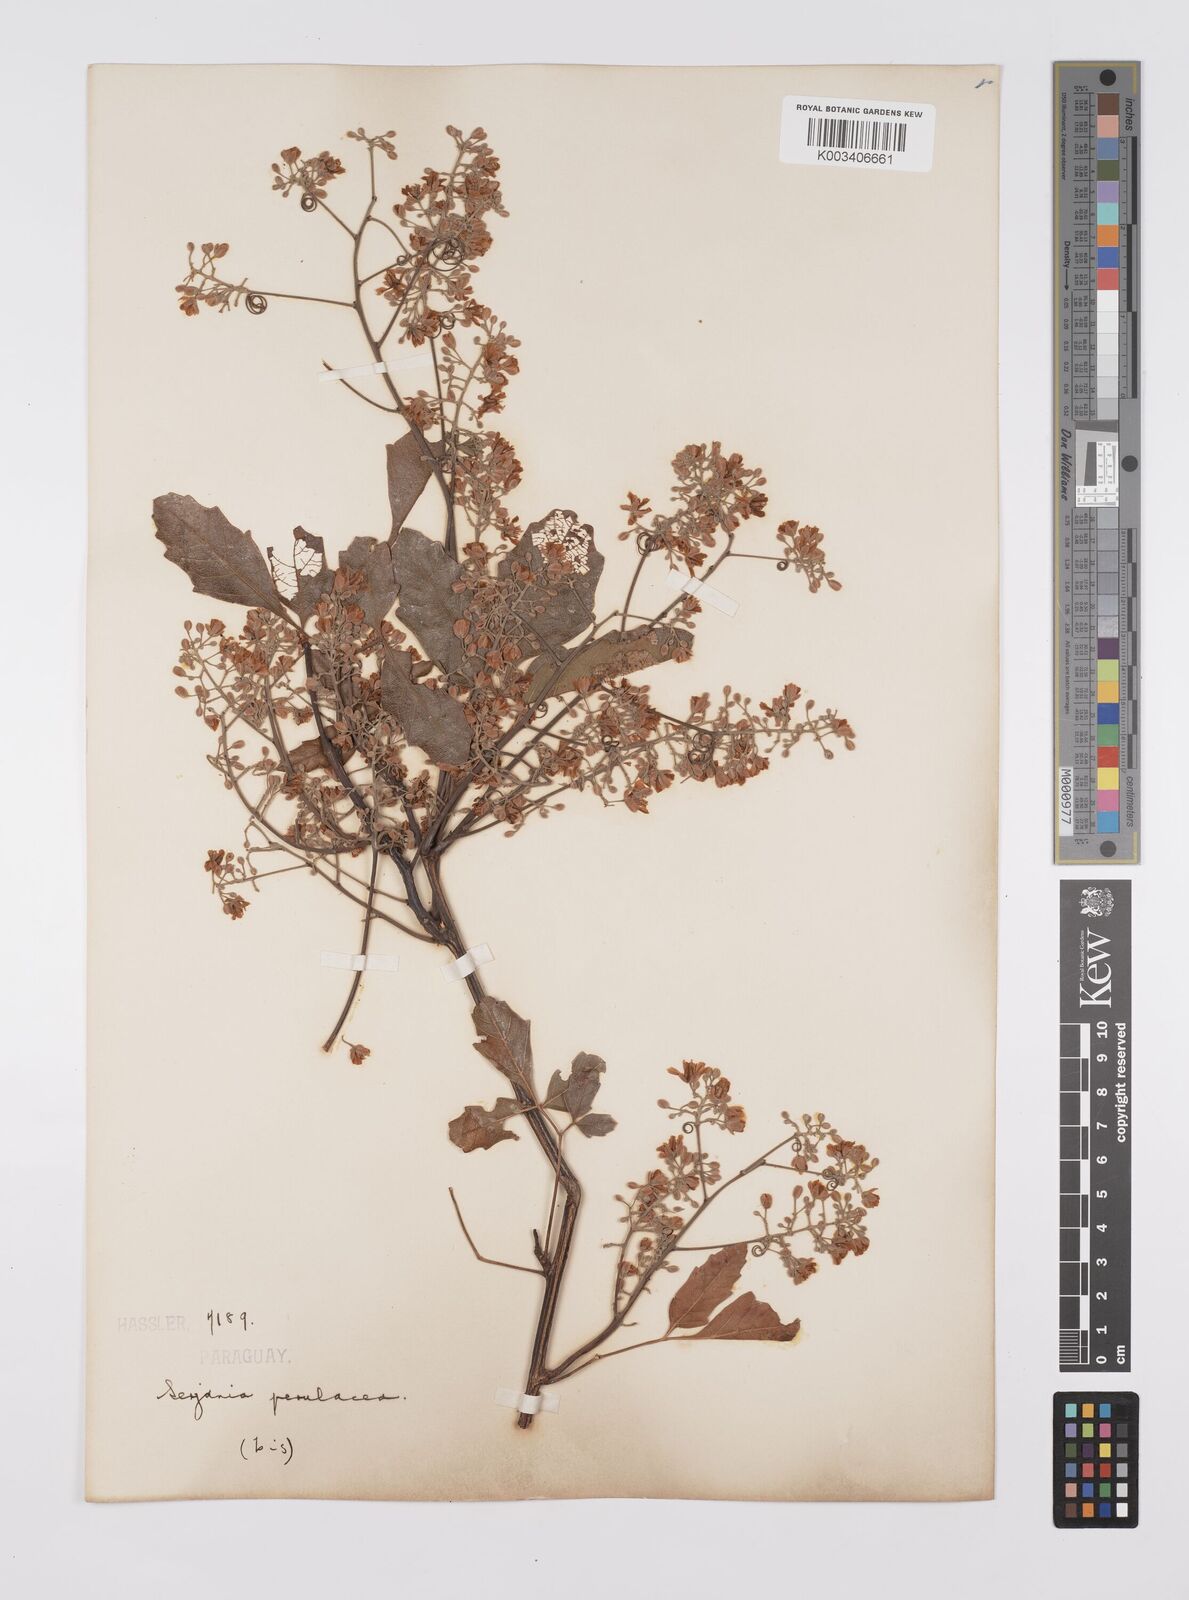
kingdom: Plantae
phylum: Tracheophyta
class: Magnoliopsida
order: Sapindales
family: Sapindaceae
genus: Serjania
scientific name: Serjania perulacea
